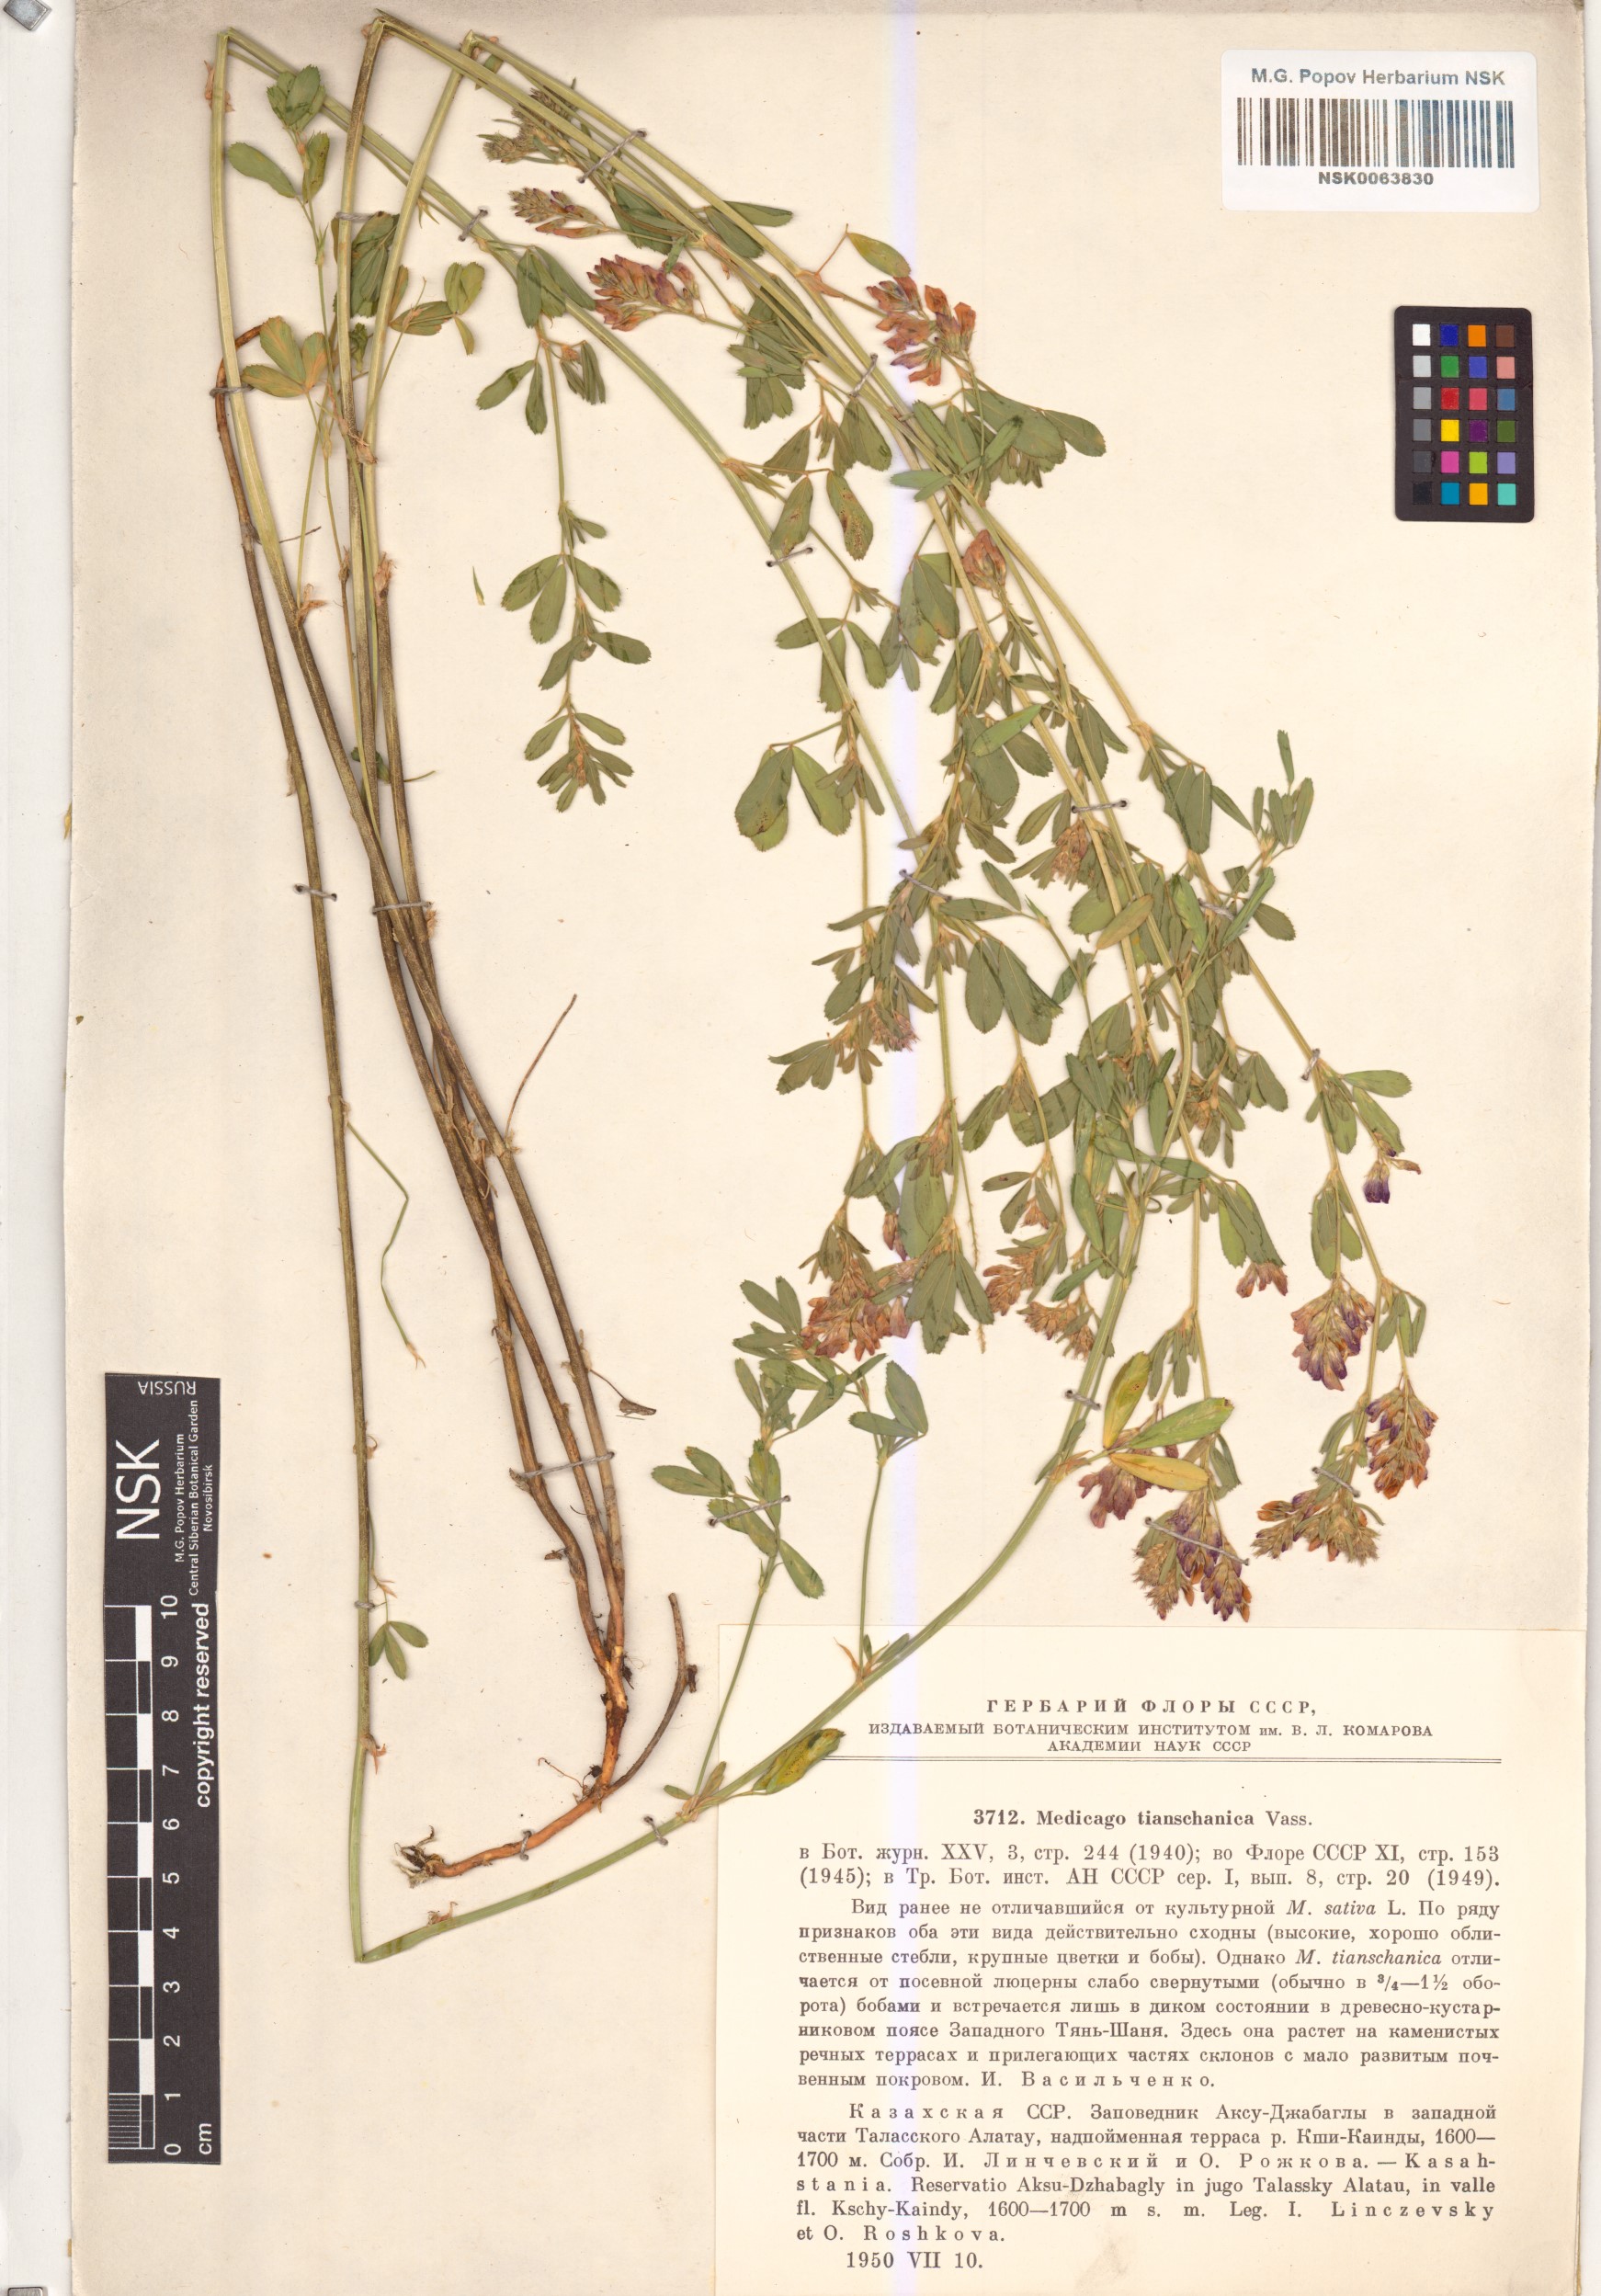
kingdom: Plantae
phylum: Tracheophyta
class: Magnoliopsida
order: Fabales
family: Fabaceae
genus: Medicago
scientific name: Medicago varia
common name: Sand lucerne
